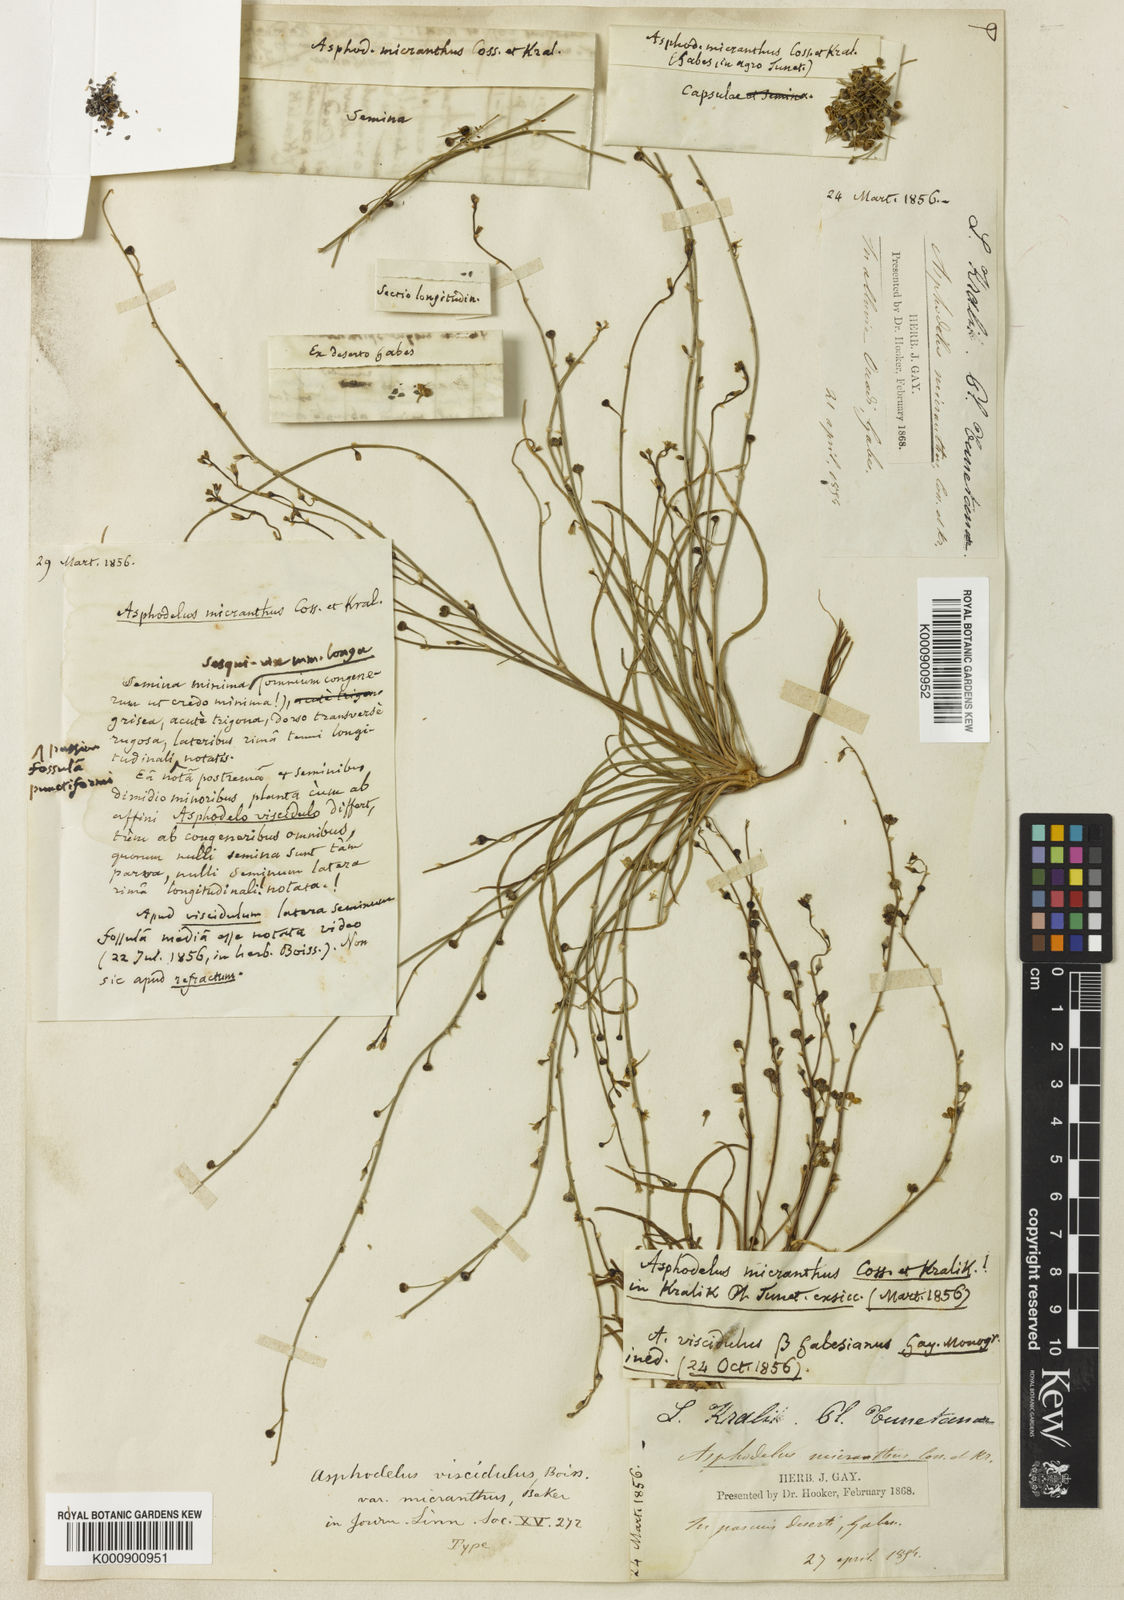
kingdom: Plantae
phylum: Tracheophyta
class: Liliopsida
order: Asparagales
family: Asphodelaceae
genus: Asphodelus
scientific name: Asphodelus viscidulus
